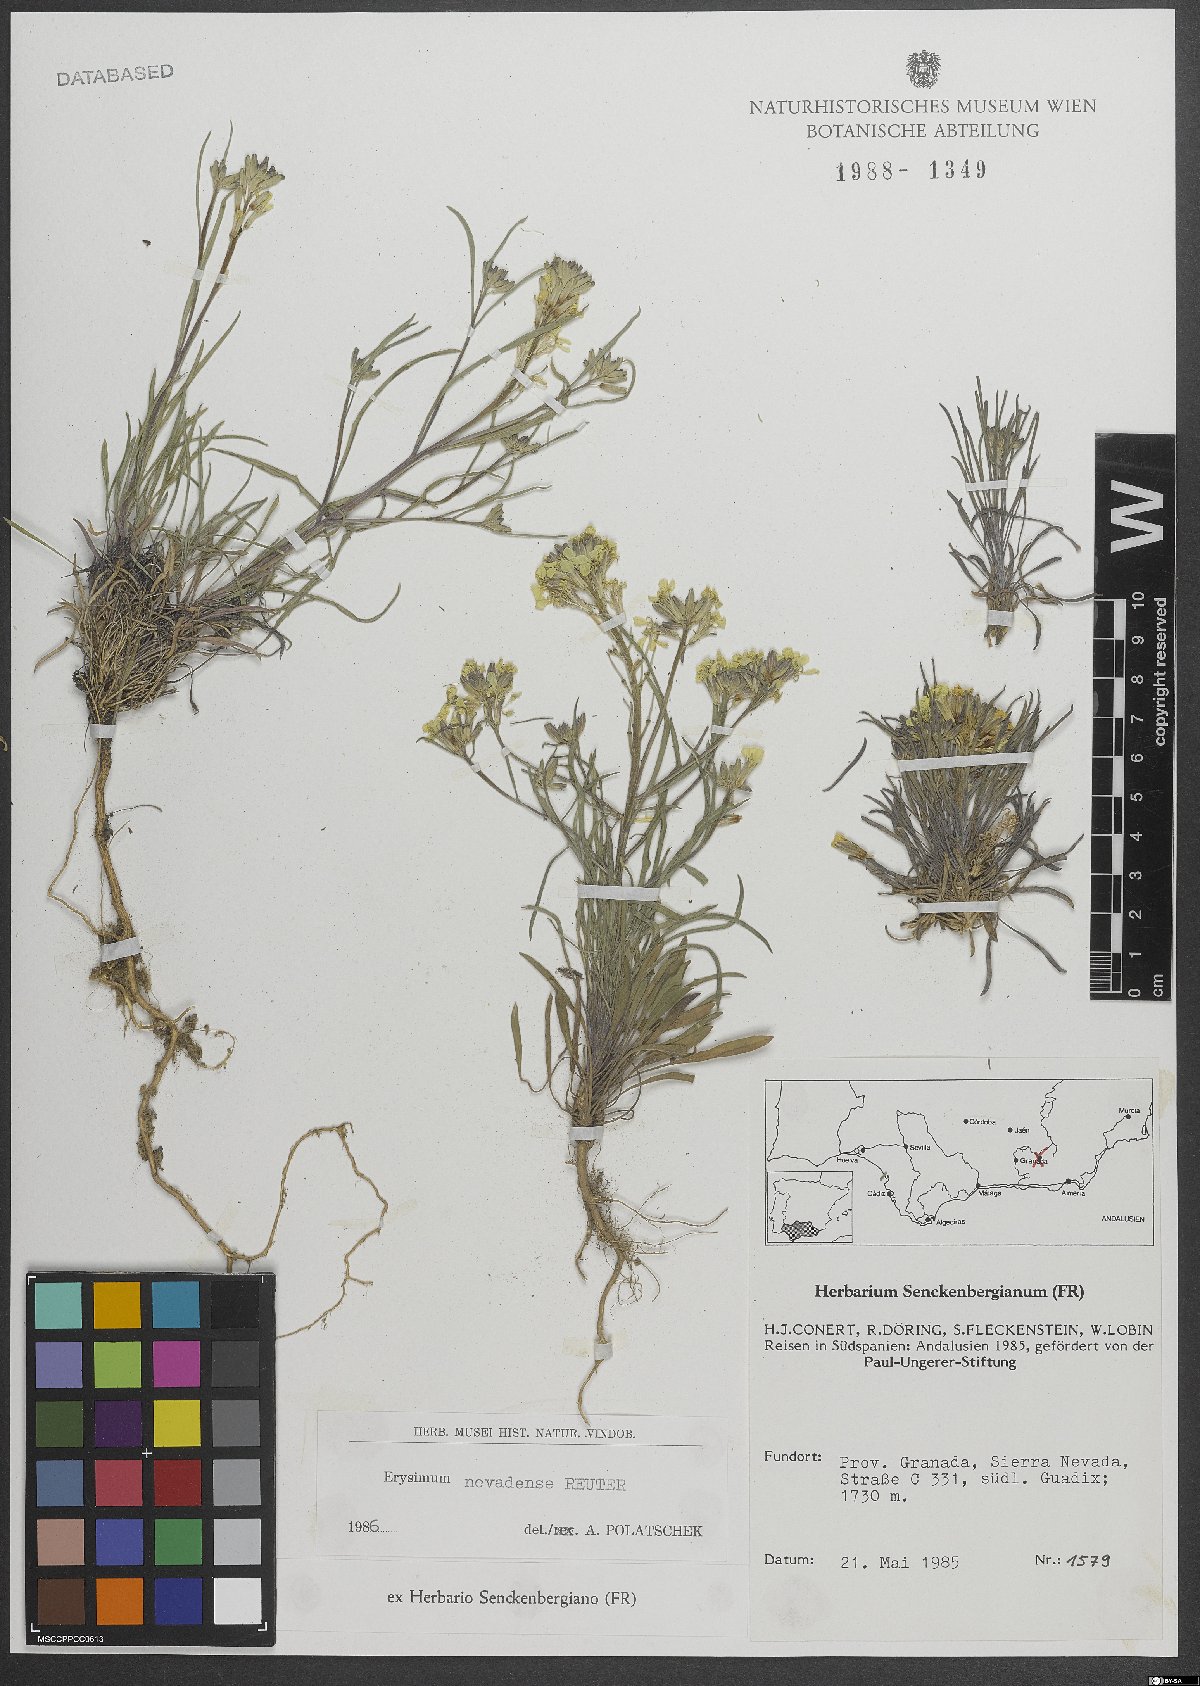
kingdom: Plantae
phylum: Tracheophyta
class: Magnoliopsida
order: Brassicales
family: Brassicaceae
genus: Erysimum
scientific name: Erysimum nevadense
